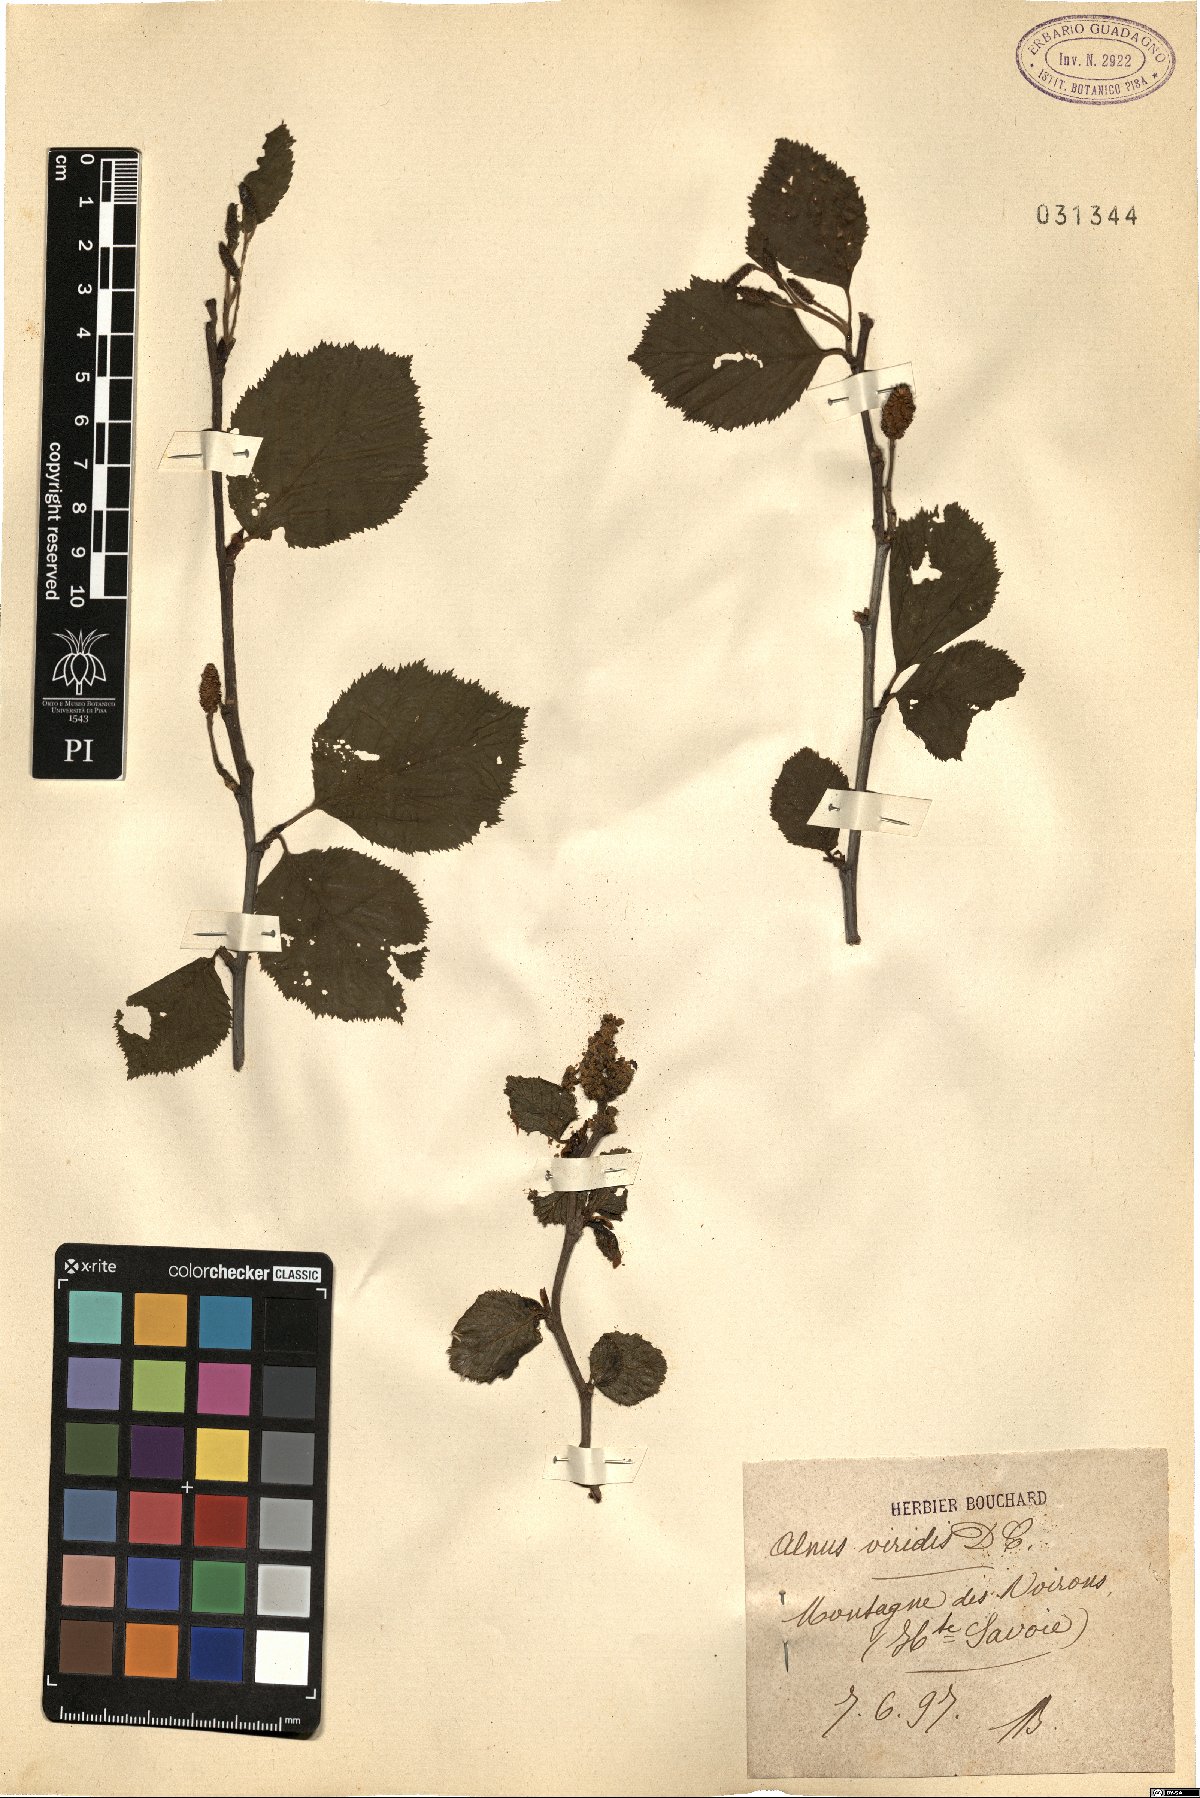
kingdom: Plantae
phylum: Tracheophyta
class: Magnoliopsida
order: Fagales
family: Betulaceae
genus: Alnus
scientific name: Alnus alnobetula
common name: Green alder
